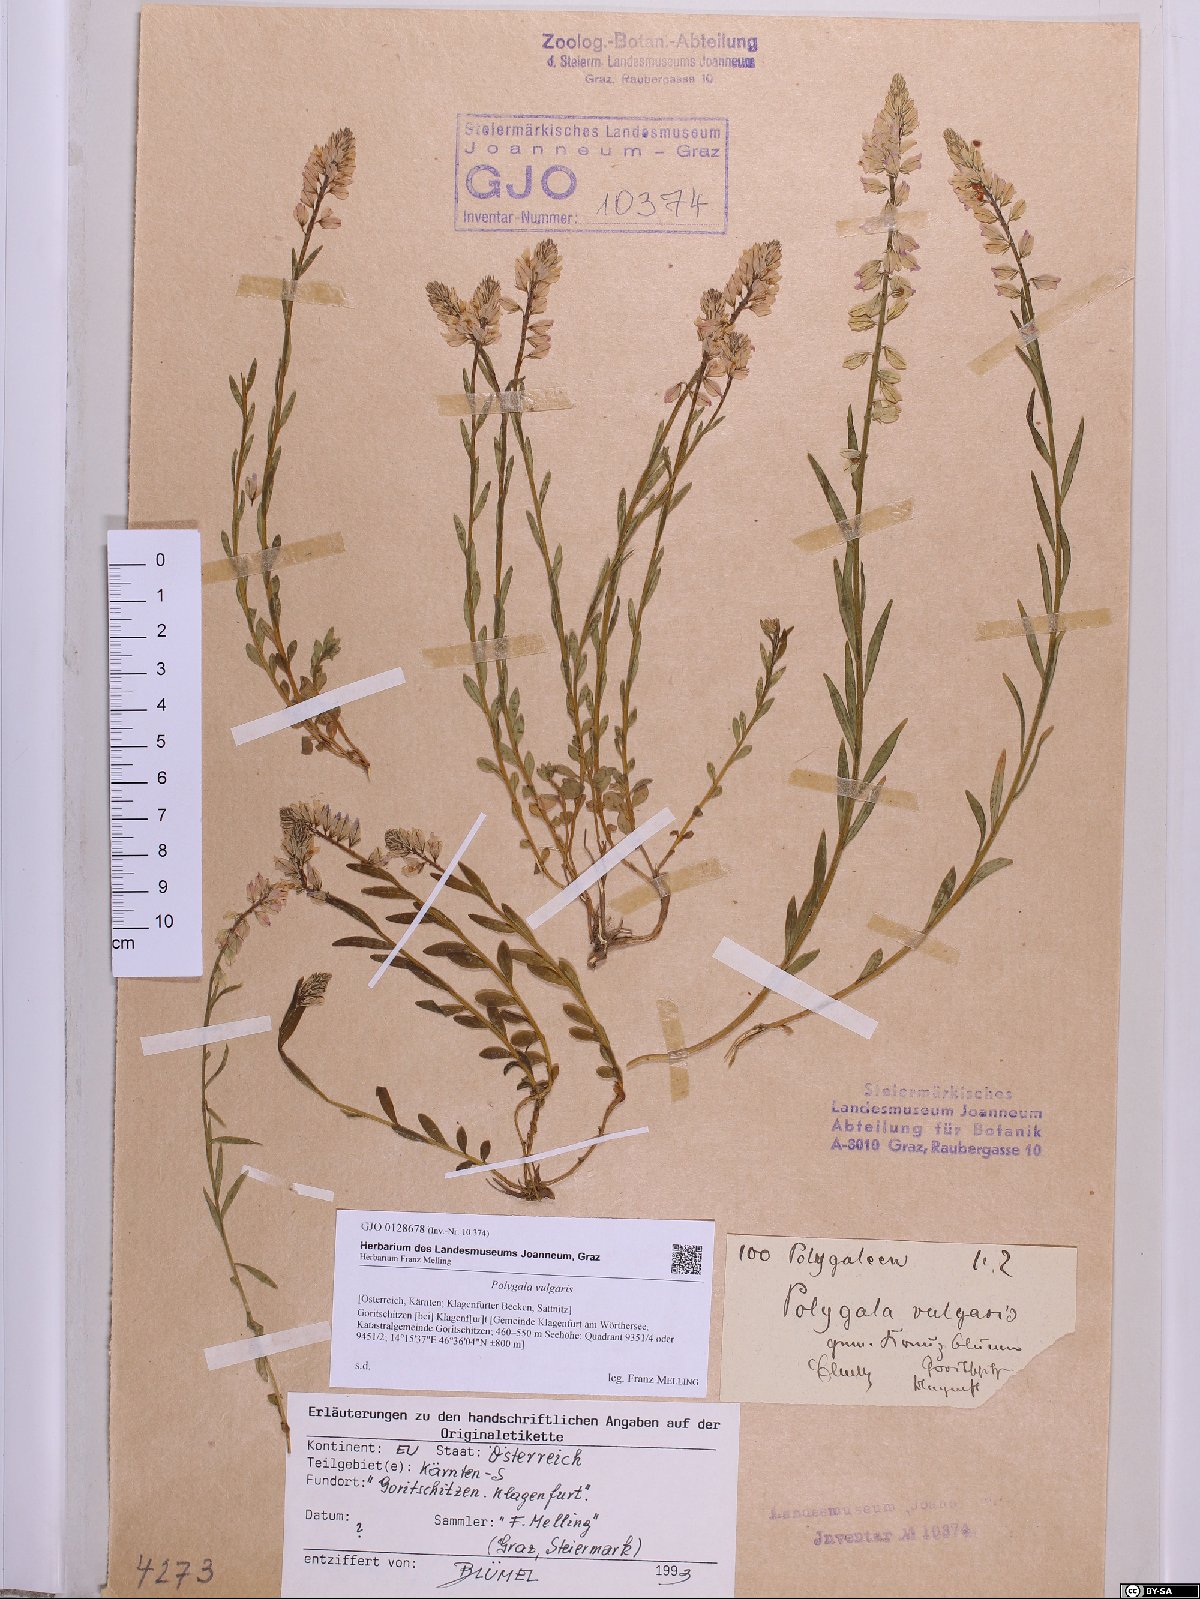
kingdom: Plantae
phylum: Tracheophyta
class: Magnoliopsida
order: Fabales
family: Polygalaceae
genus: Polygala
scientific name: Polygala vulgaris
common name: Common milkwort
